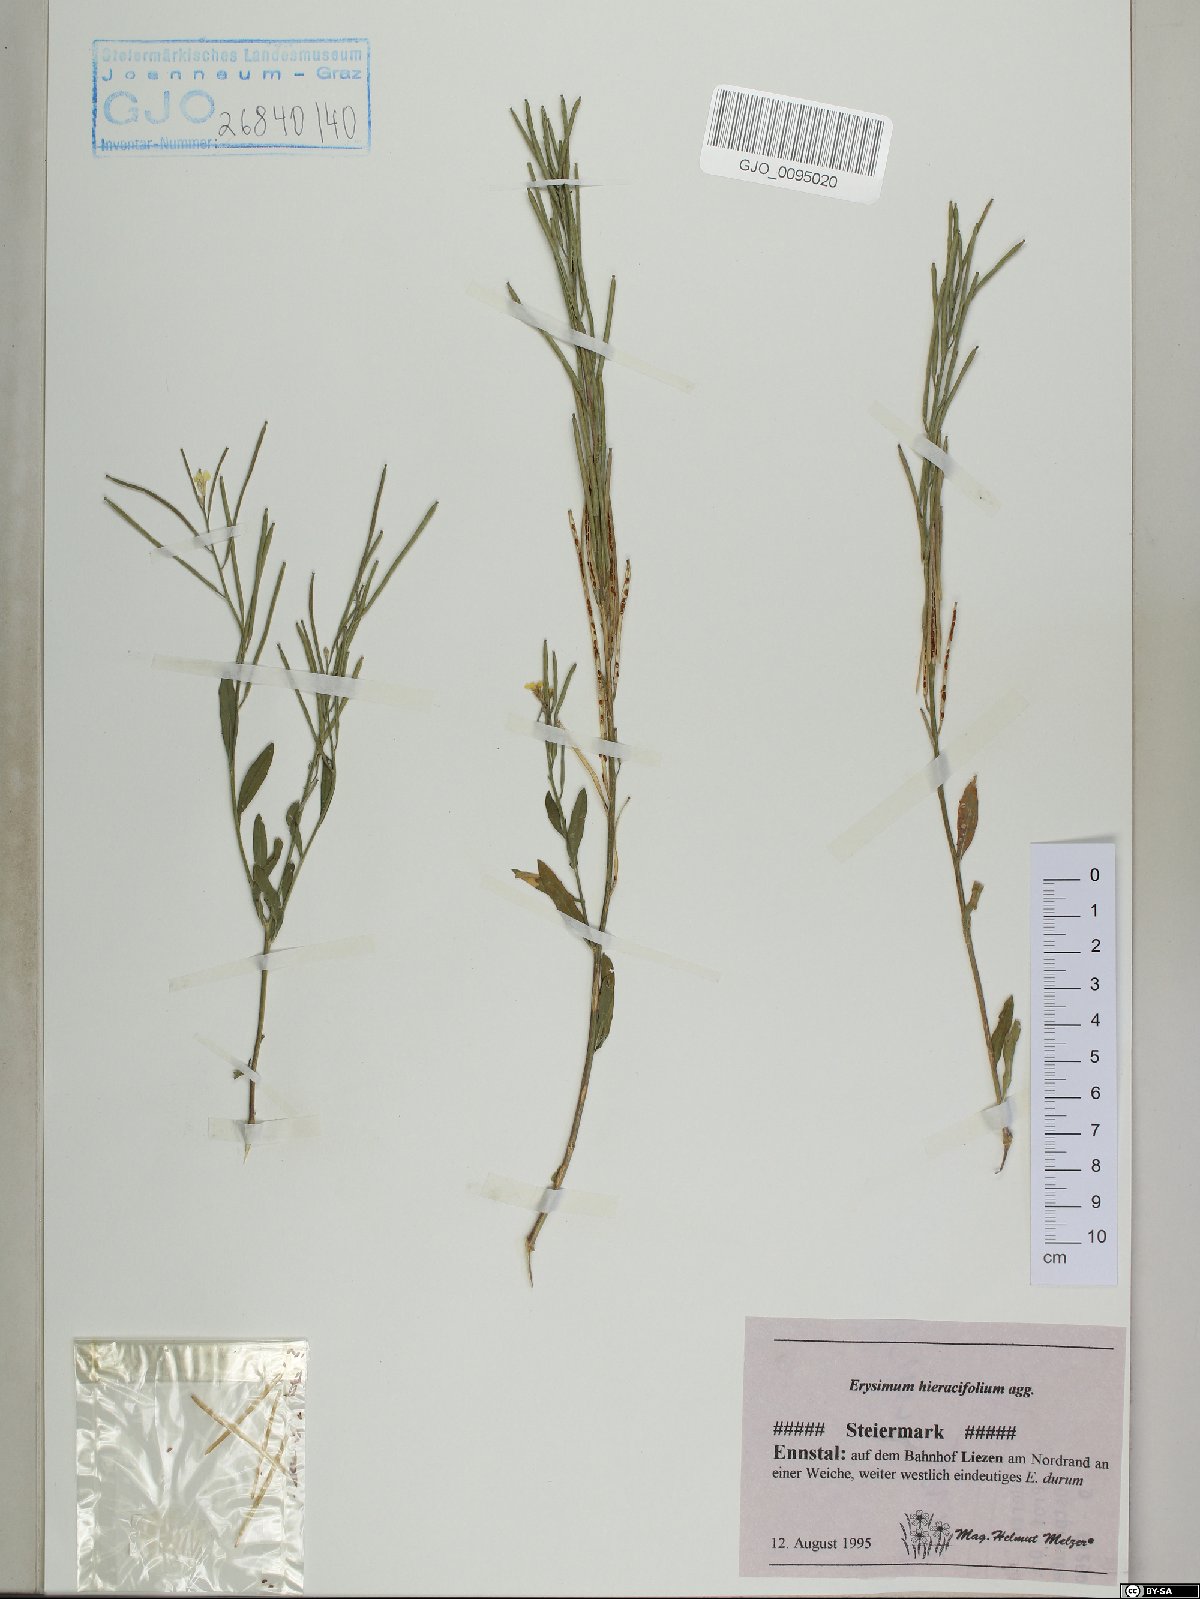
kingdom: Plantae
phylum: Tracheophyta
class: Magnoliopsida
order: Brassicales
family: Brassicaceae
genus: Erysimum
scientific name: Erysimum hieraciifolium
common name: European wallflower
